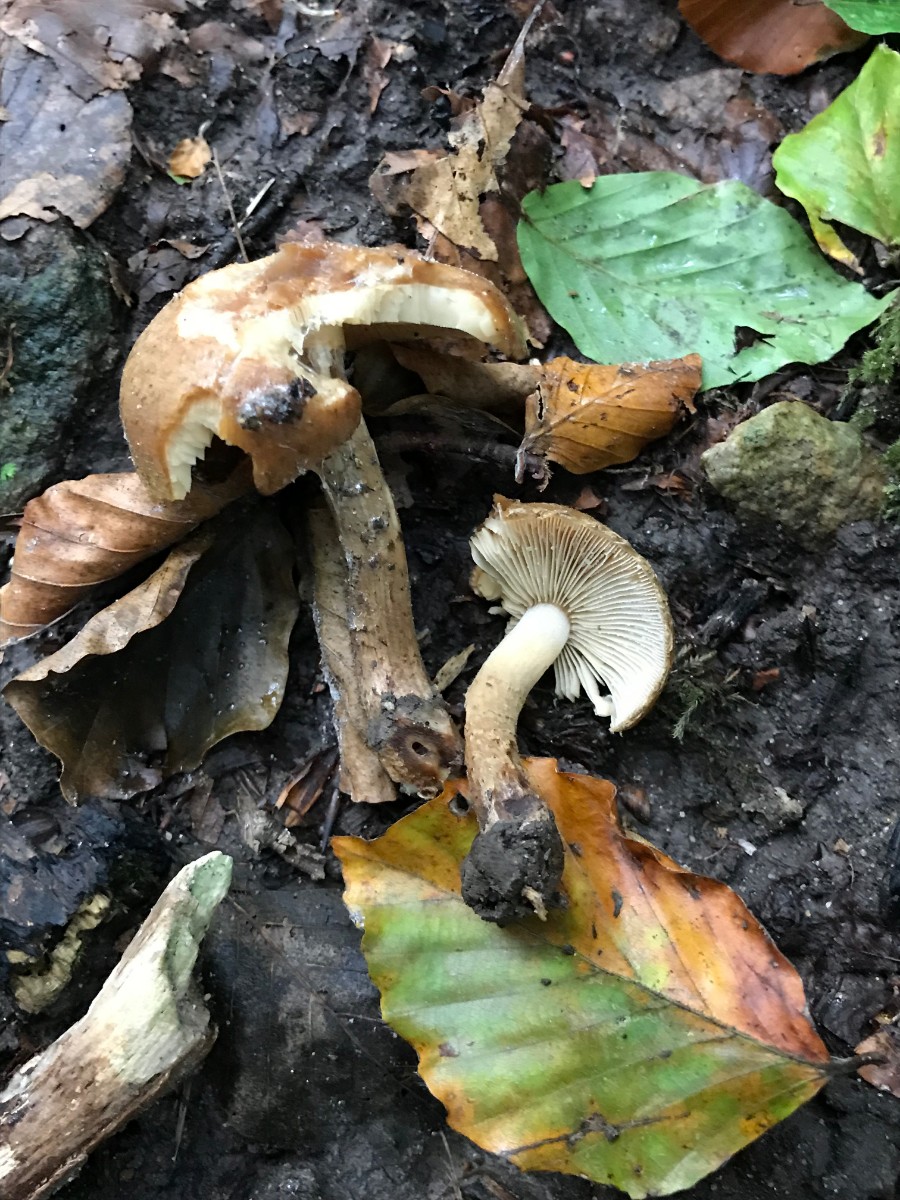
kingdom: Fungi
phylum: Basidiomycota
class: Agaricomycetes
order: Agaricales
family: Psathyrellaceae
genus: Lacrymaria
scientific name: Lacrymaria
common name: mørkhat
